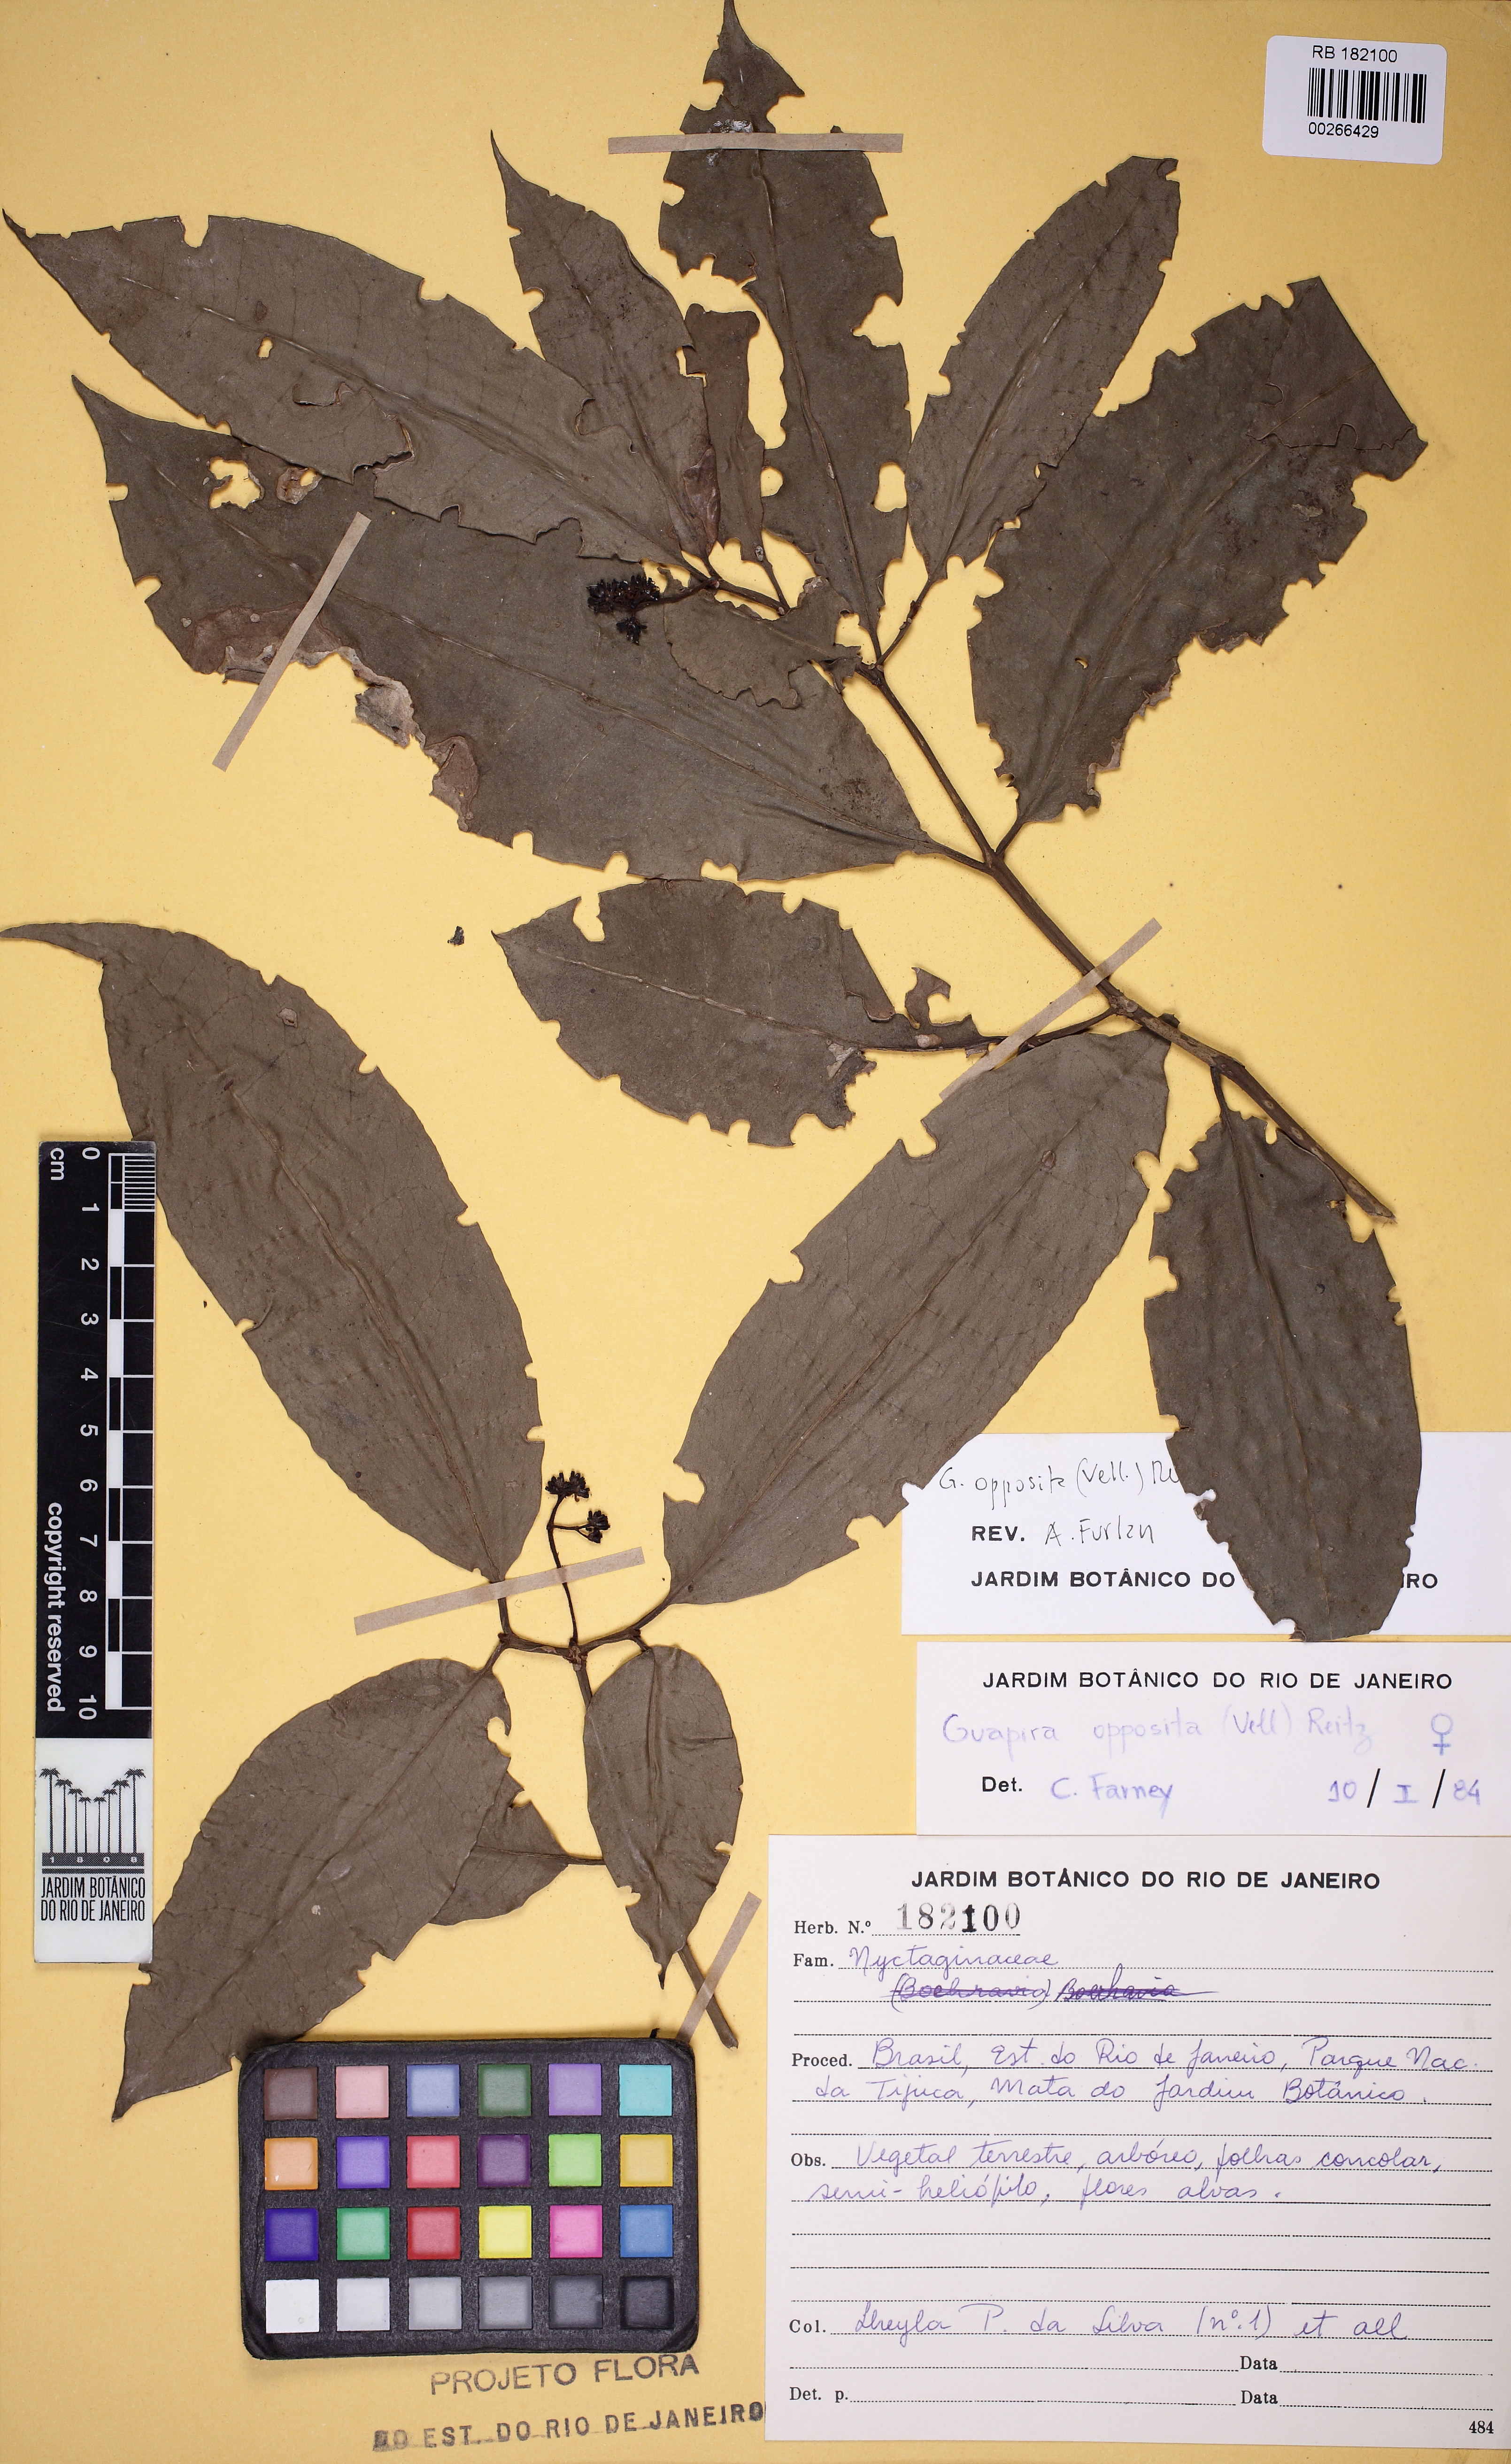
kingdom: Plantae
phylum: Tracheophyta
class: Magnoliopsida
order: Caryophyllales
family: Nyctaginaceae
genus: Guapira
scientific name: Guapira opposita
